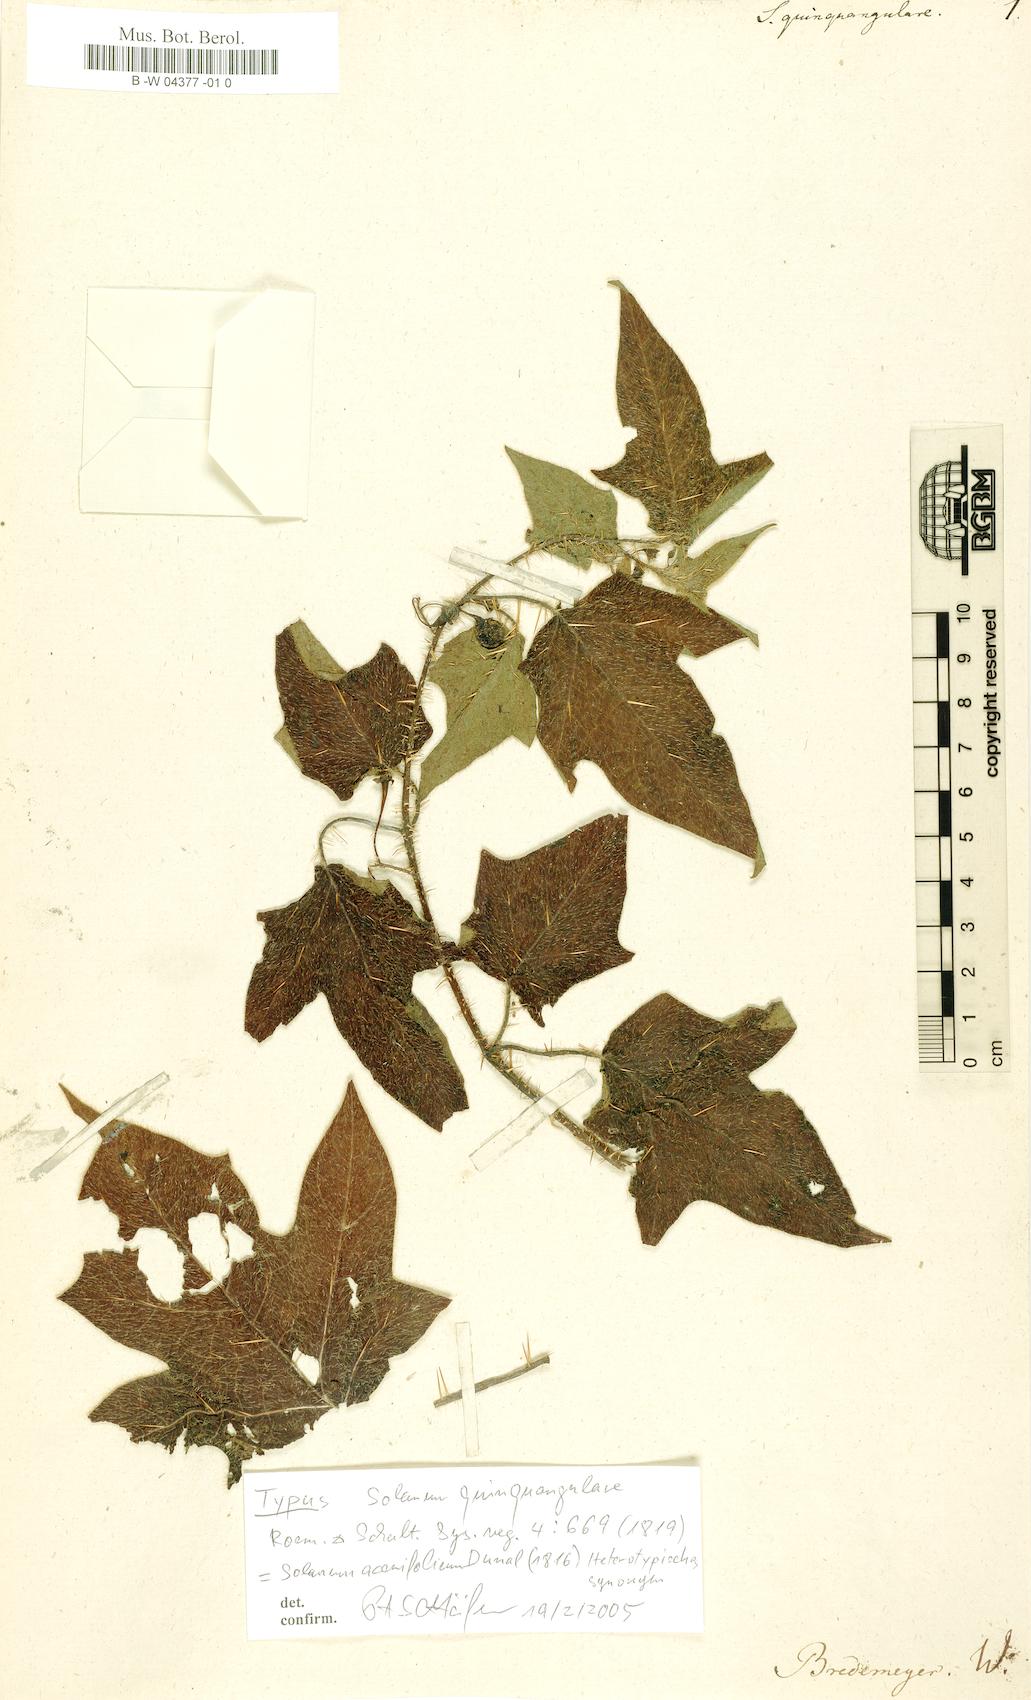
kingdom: Plantae
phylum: Tracheophyta
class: Magnoliopsida
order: Solanales
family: Solanaceae
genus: Solanum
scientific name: Solanum acerifolium
